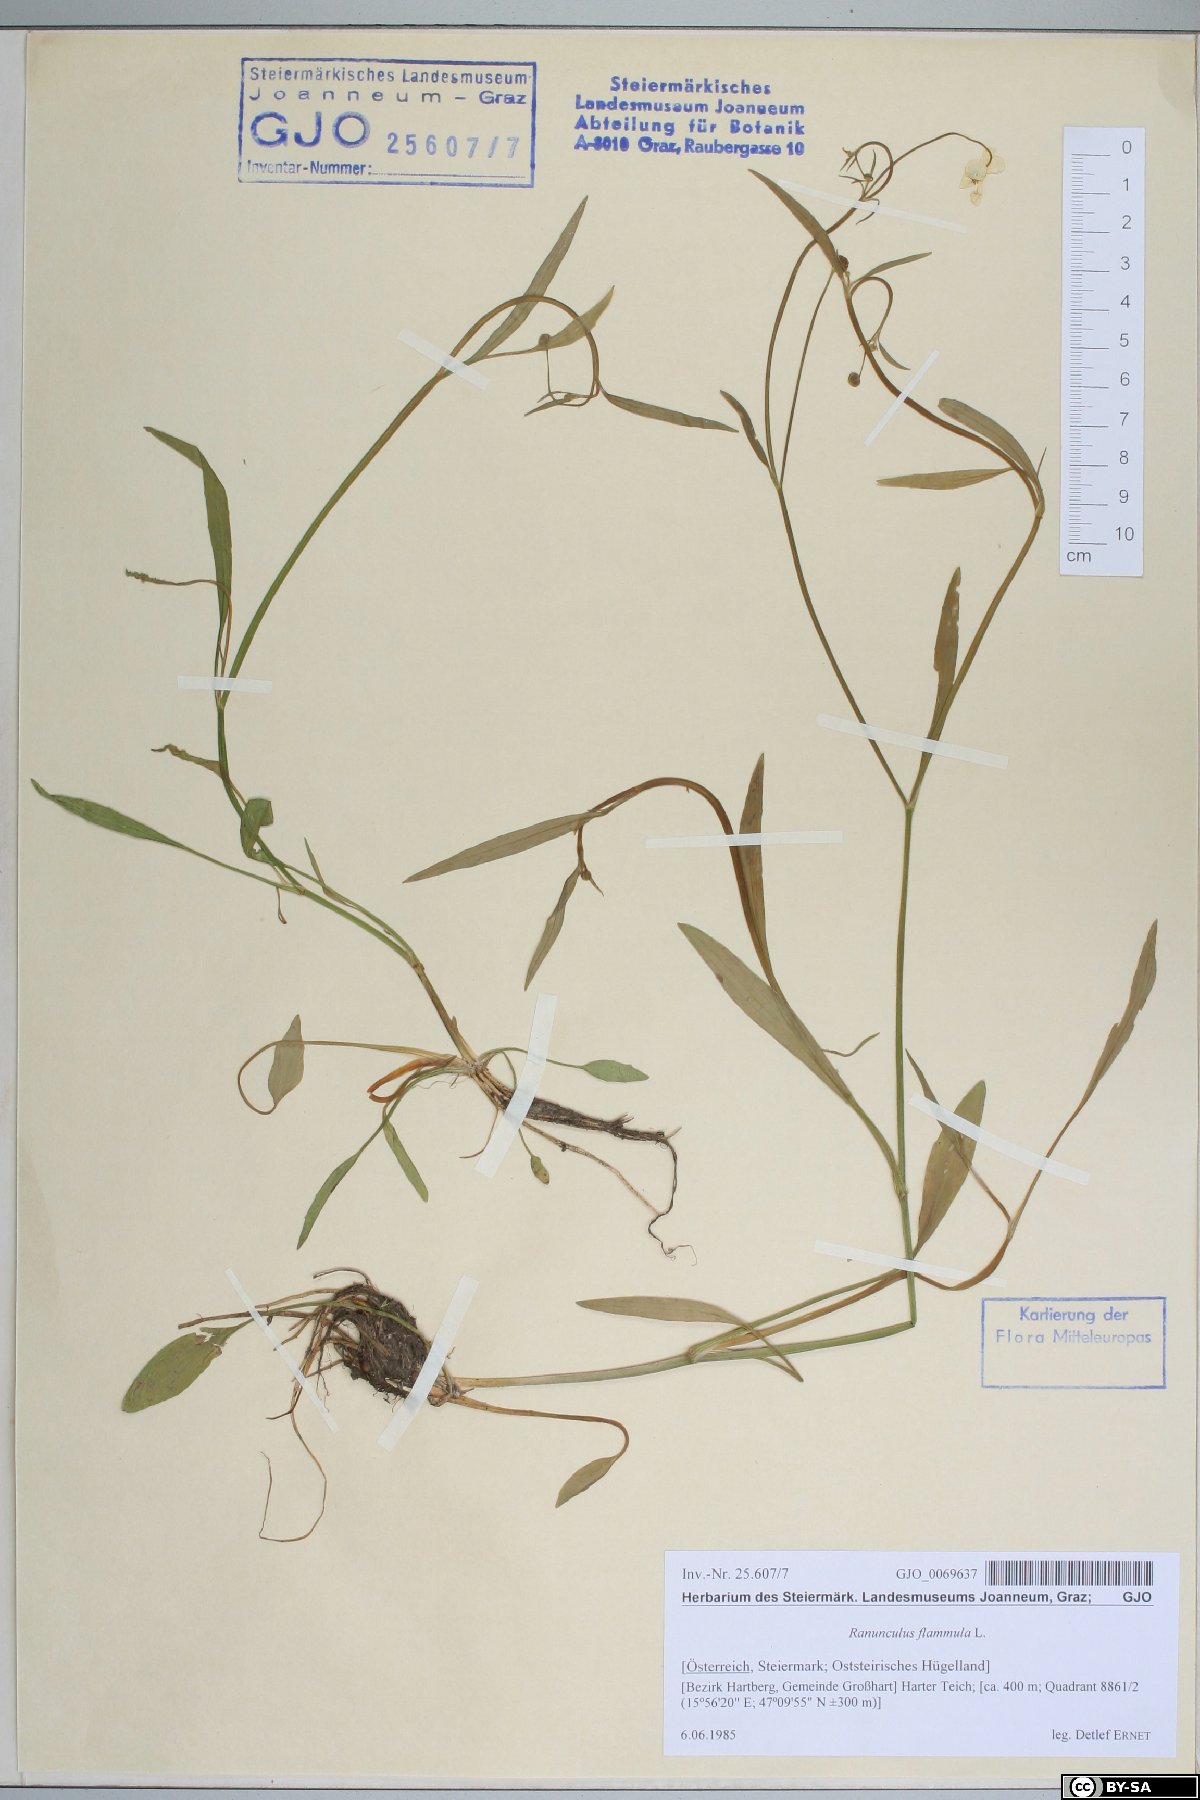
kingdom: Plantae
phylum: Tracheophyta
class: Magnoliopsida
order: Ranunculales
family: Ranunculaceae
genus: Ranunculus
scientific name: Ranunculus flammula
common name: Lesser spearwort
